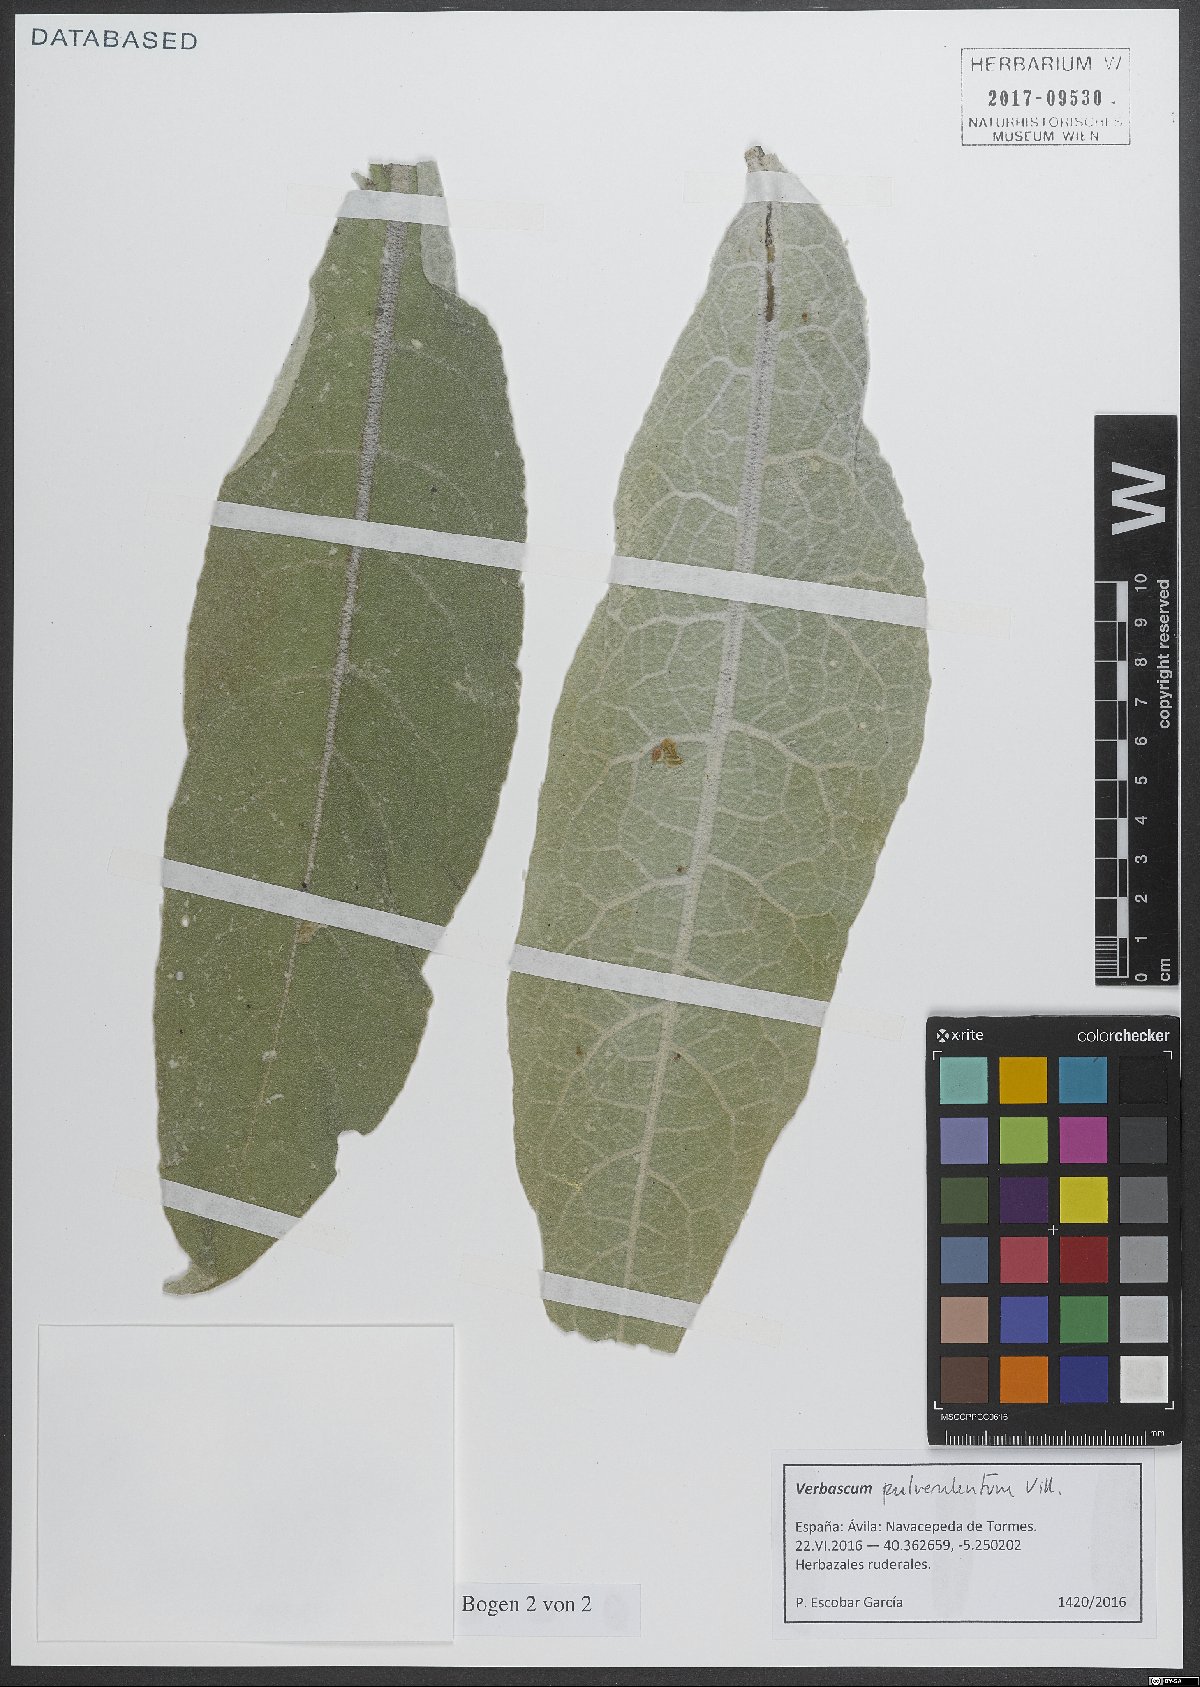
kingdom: Plantae
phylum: Tracheophyta
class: Magnoliopsida
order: Lamiales
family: Scrophulariaceae
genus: Verbascum
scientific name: Verbascum pulverulentum
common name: Broad-leaf mullein
